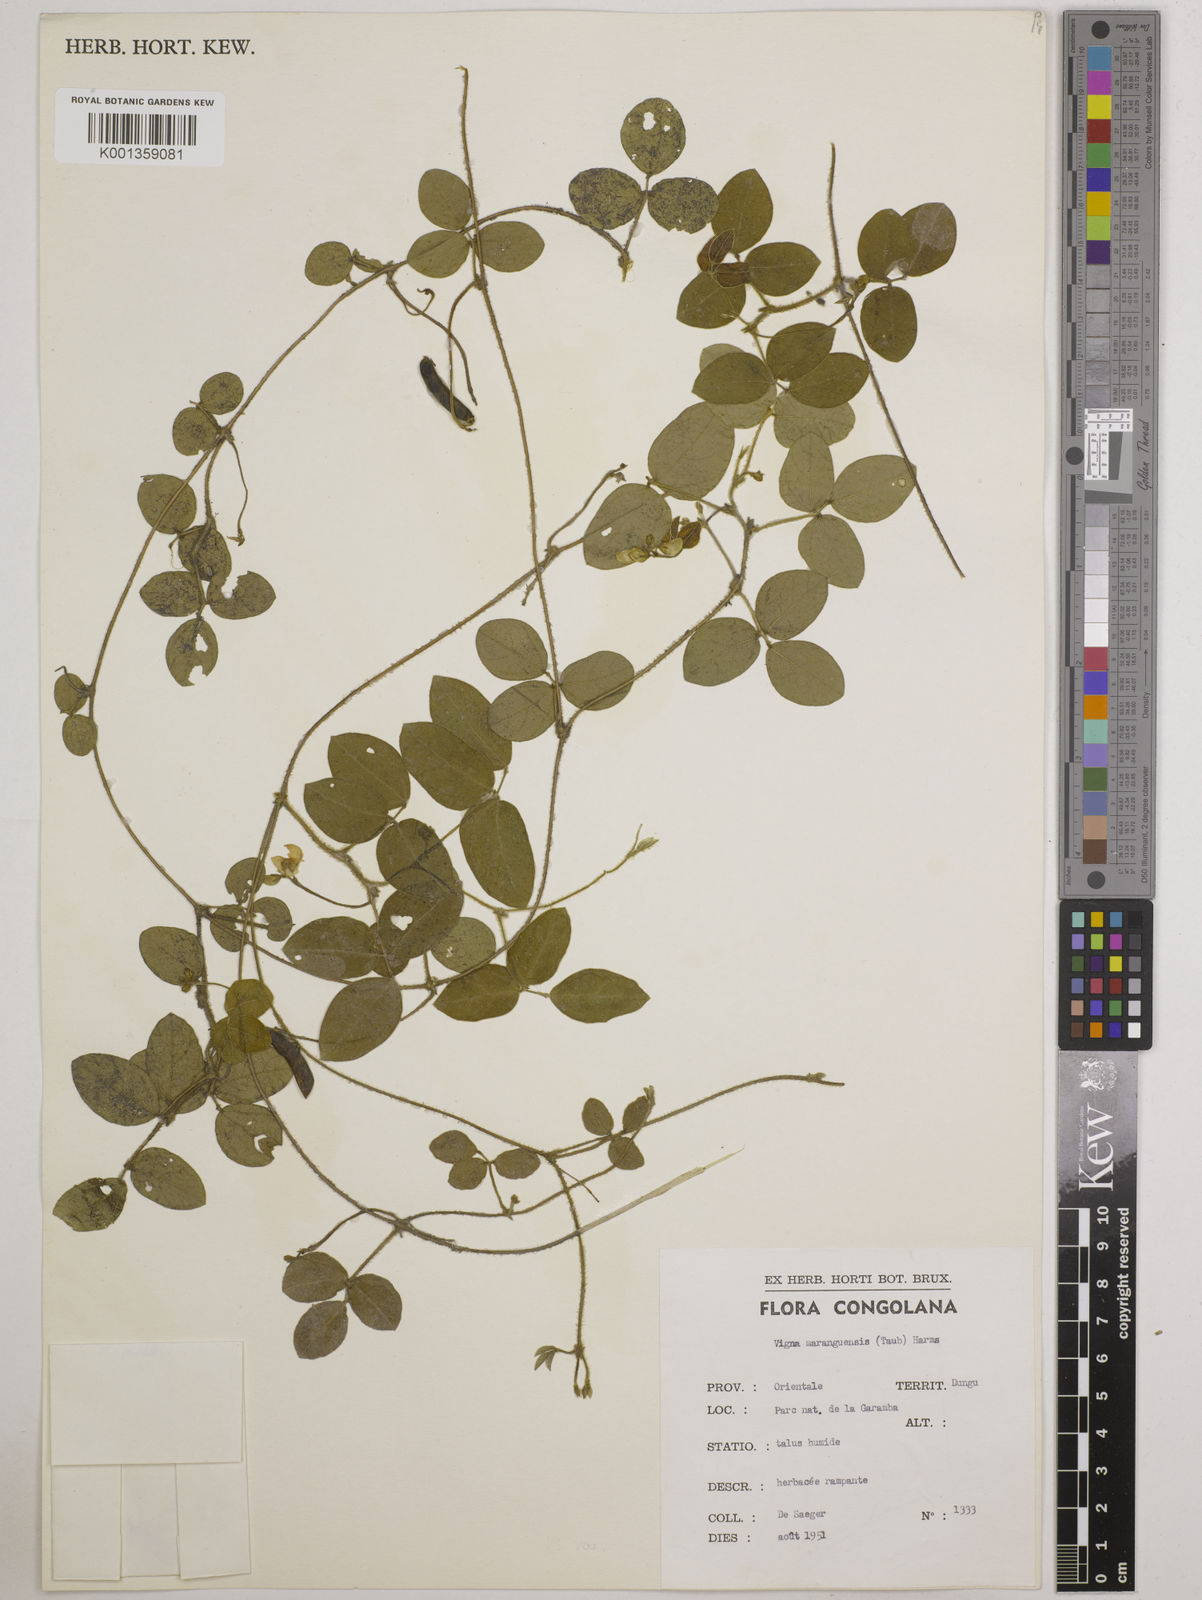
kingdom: Plantae
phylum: Tracheophyta
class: Magnoliopsida
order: Fabales
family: Fabaceae
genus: Vigna
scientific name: Vigna
